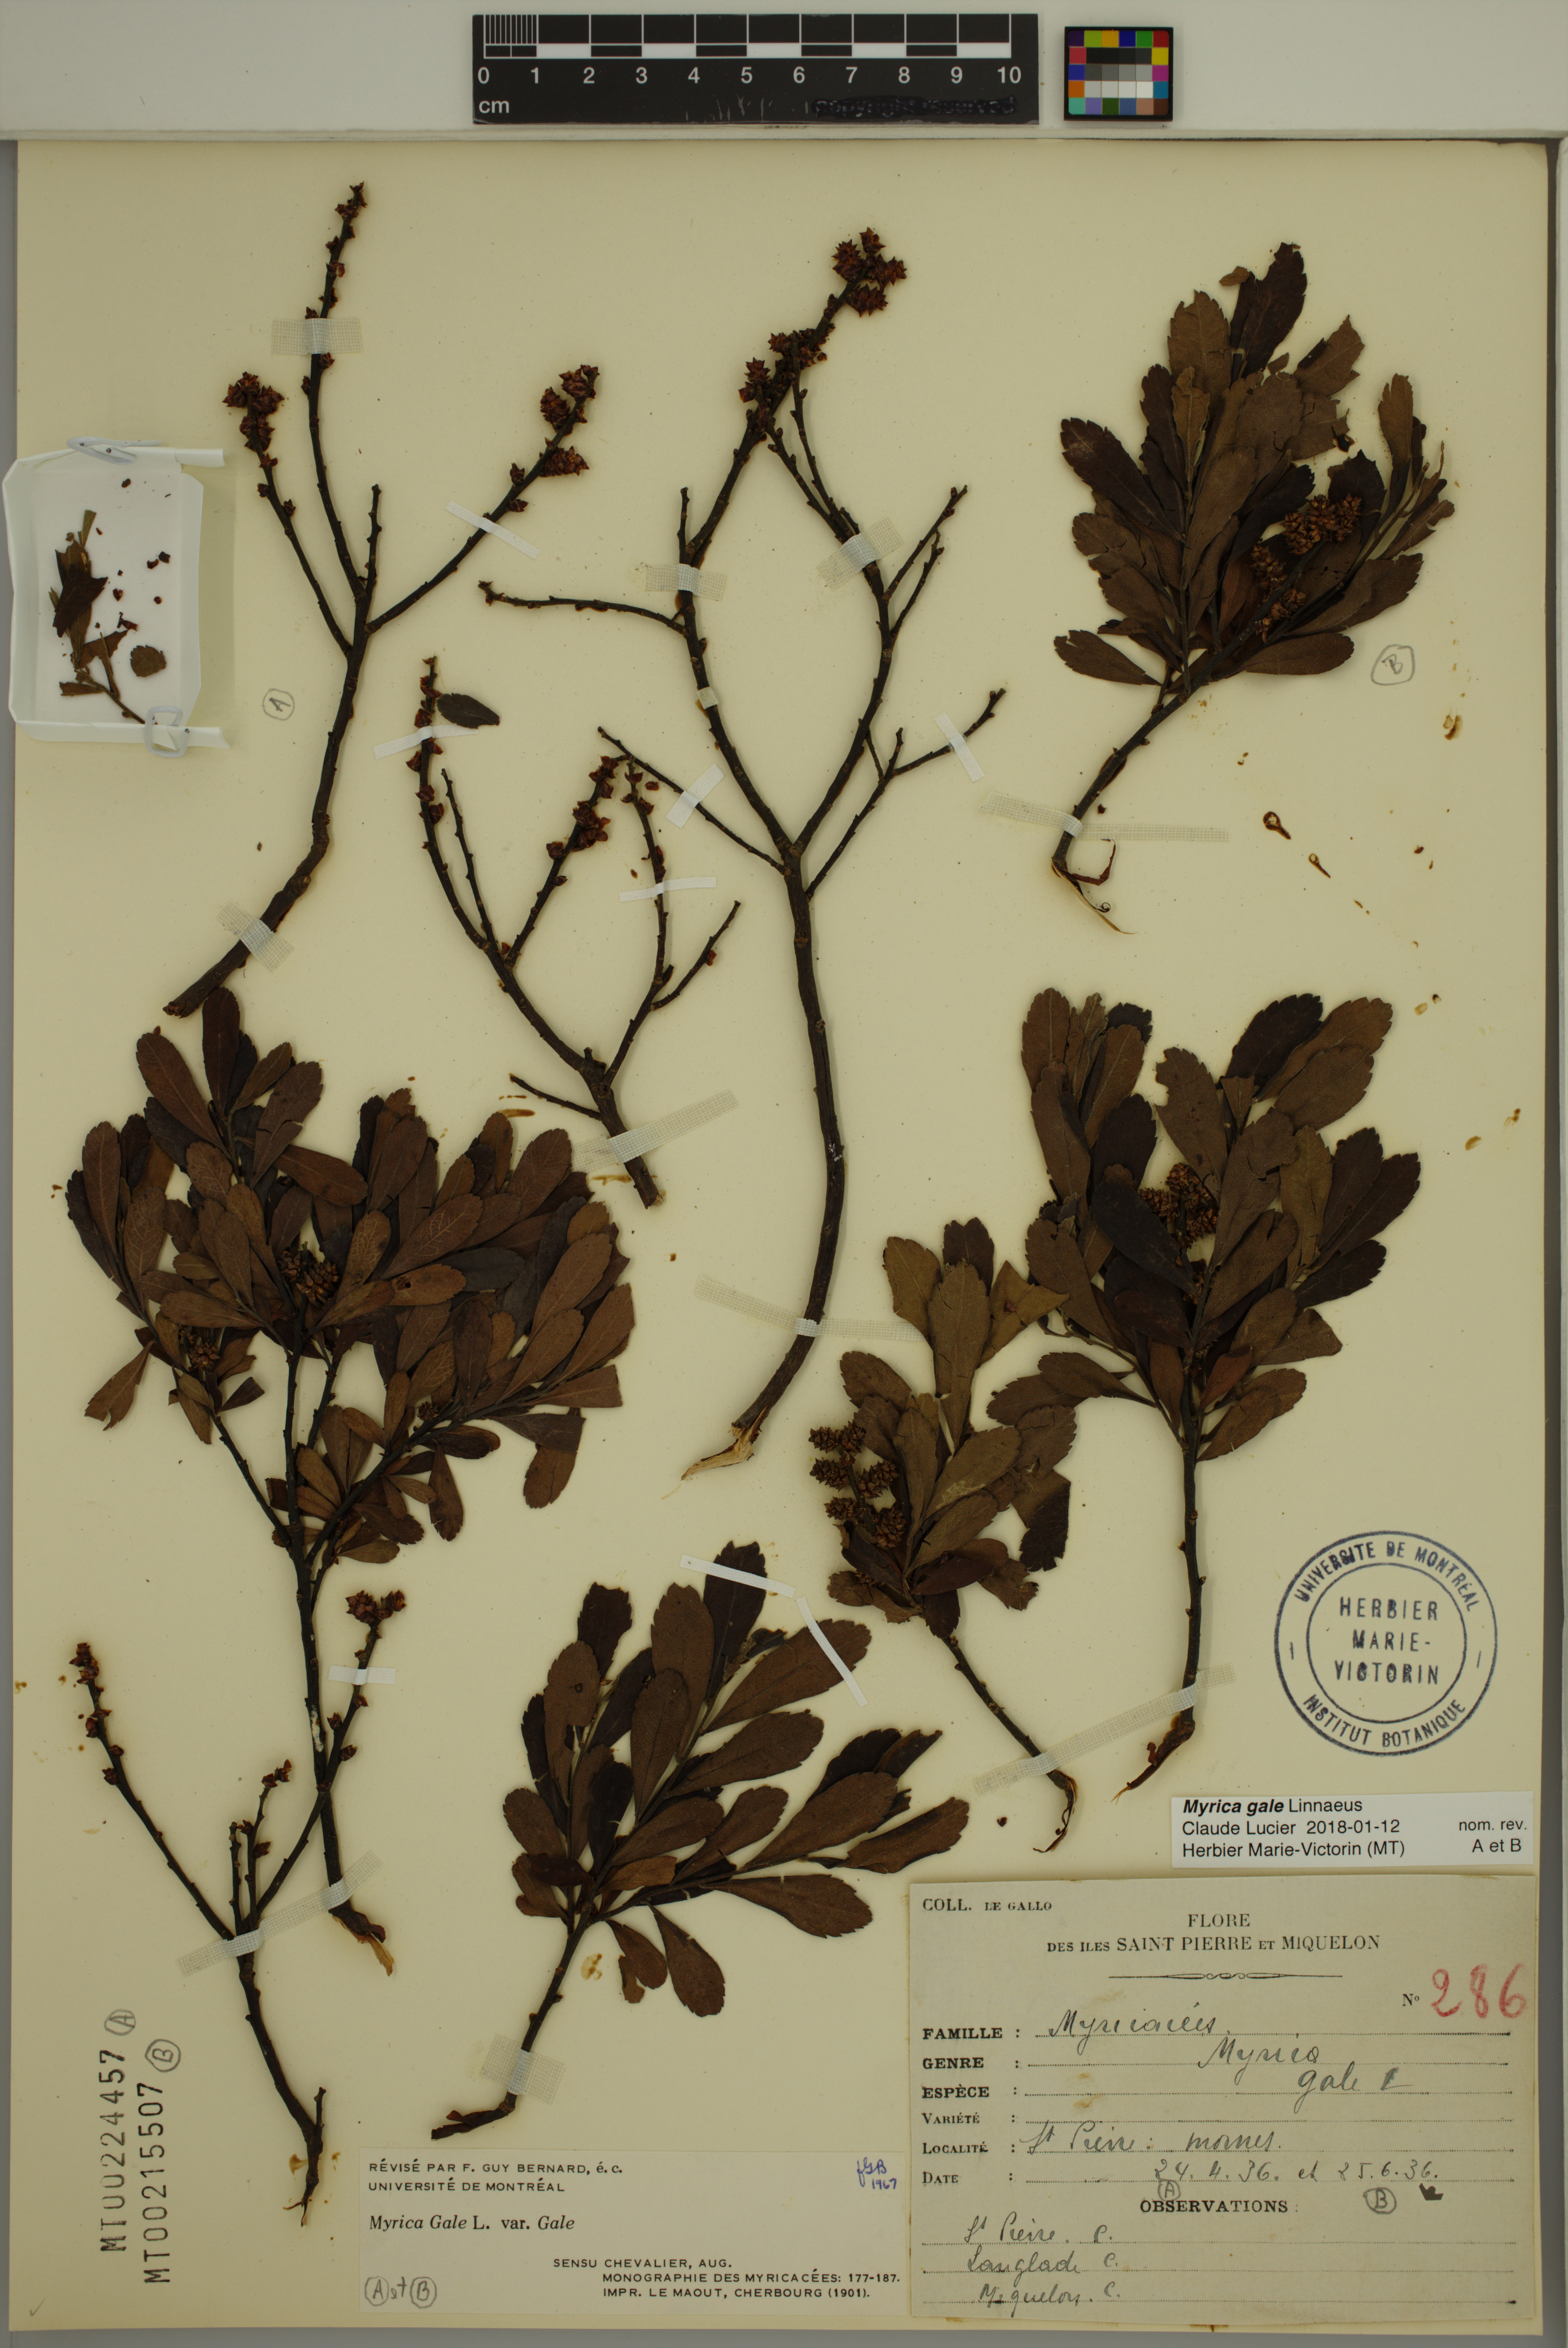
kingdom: Plantae
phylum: Tracheophyta
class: Magnoliopsida
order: Fagales
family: Myricaceae
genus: Myrica
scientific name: Myrica gale
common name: Sweet gale
